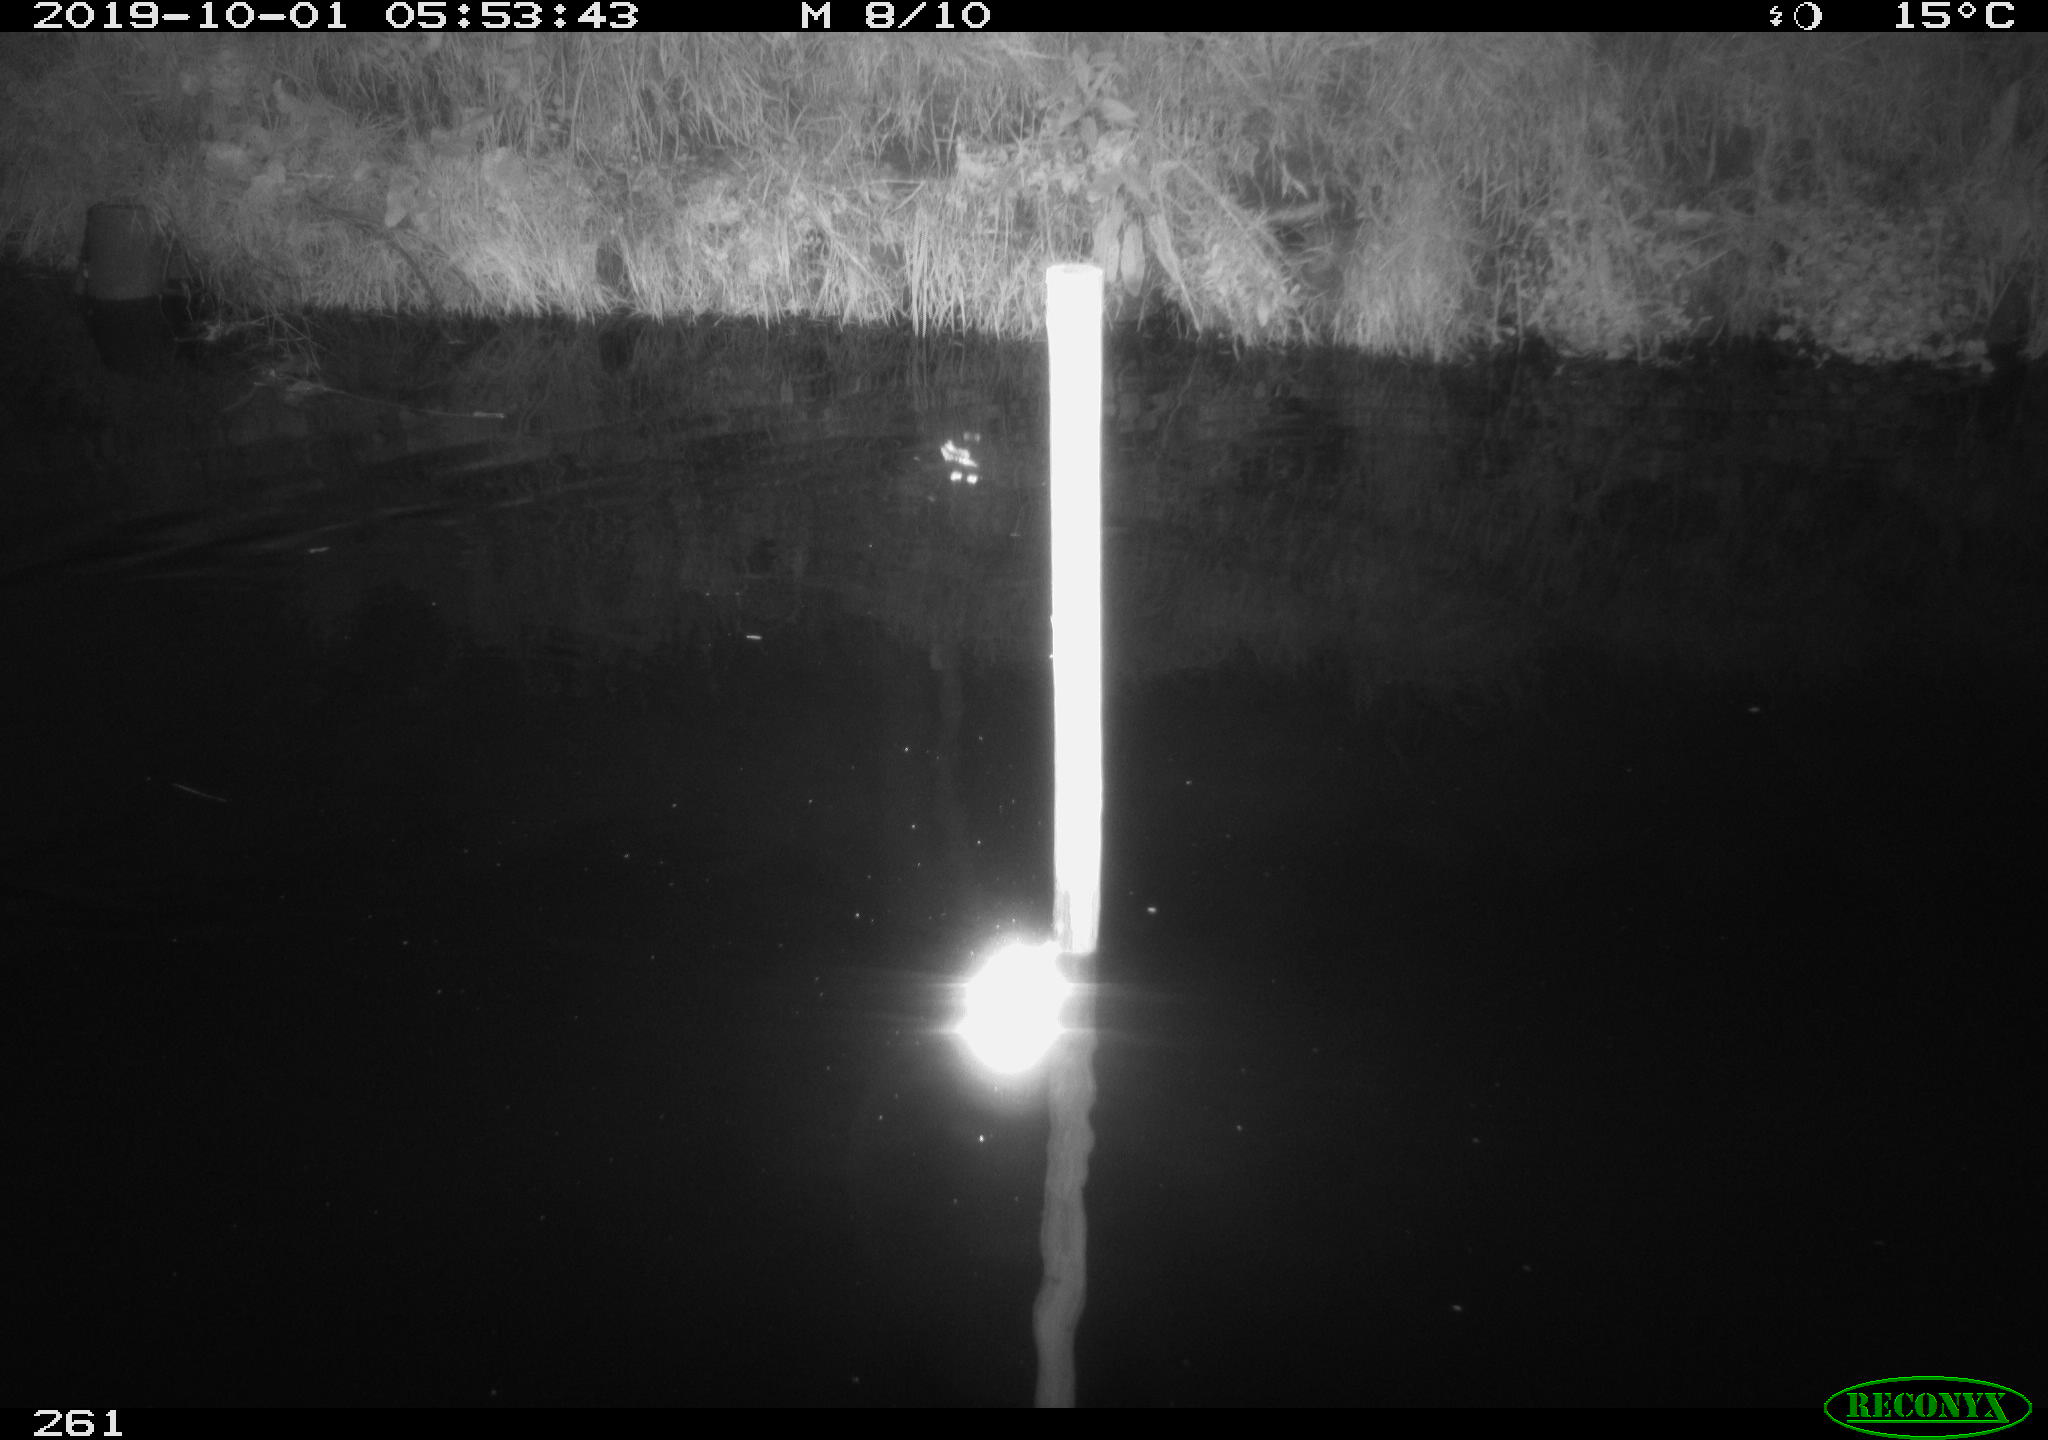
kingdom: Animalia
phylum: Chordata
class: Aves
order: Anseriformes
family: Anatidae
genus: Anas
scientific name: Anas platyrhynchos
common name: Mallard
